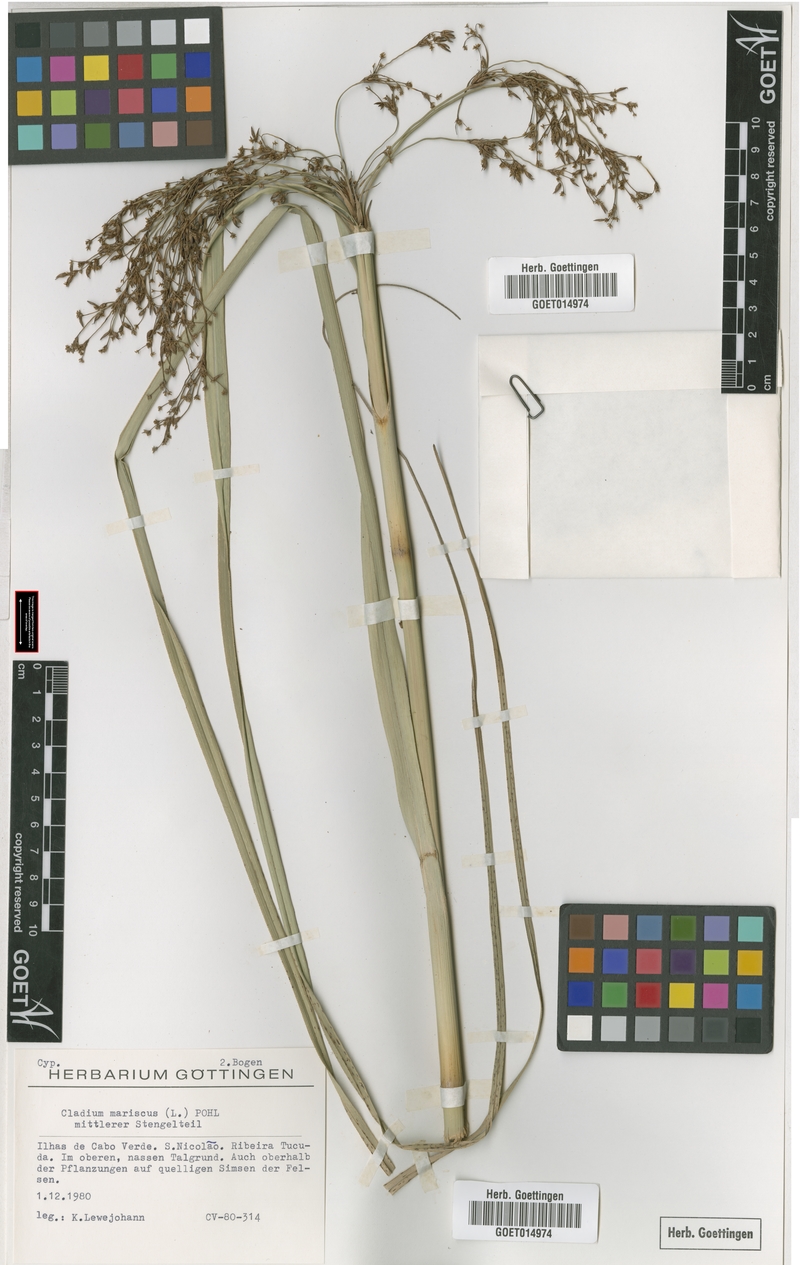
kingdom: Plantae
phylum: Tracheophyta
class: Liliopsida
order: Poales
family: Cyperaceae
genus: Cladium
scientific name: Cladium mariscus
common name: Great fen-sedge
